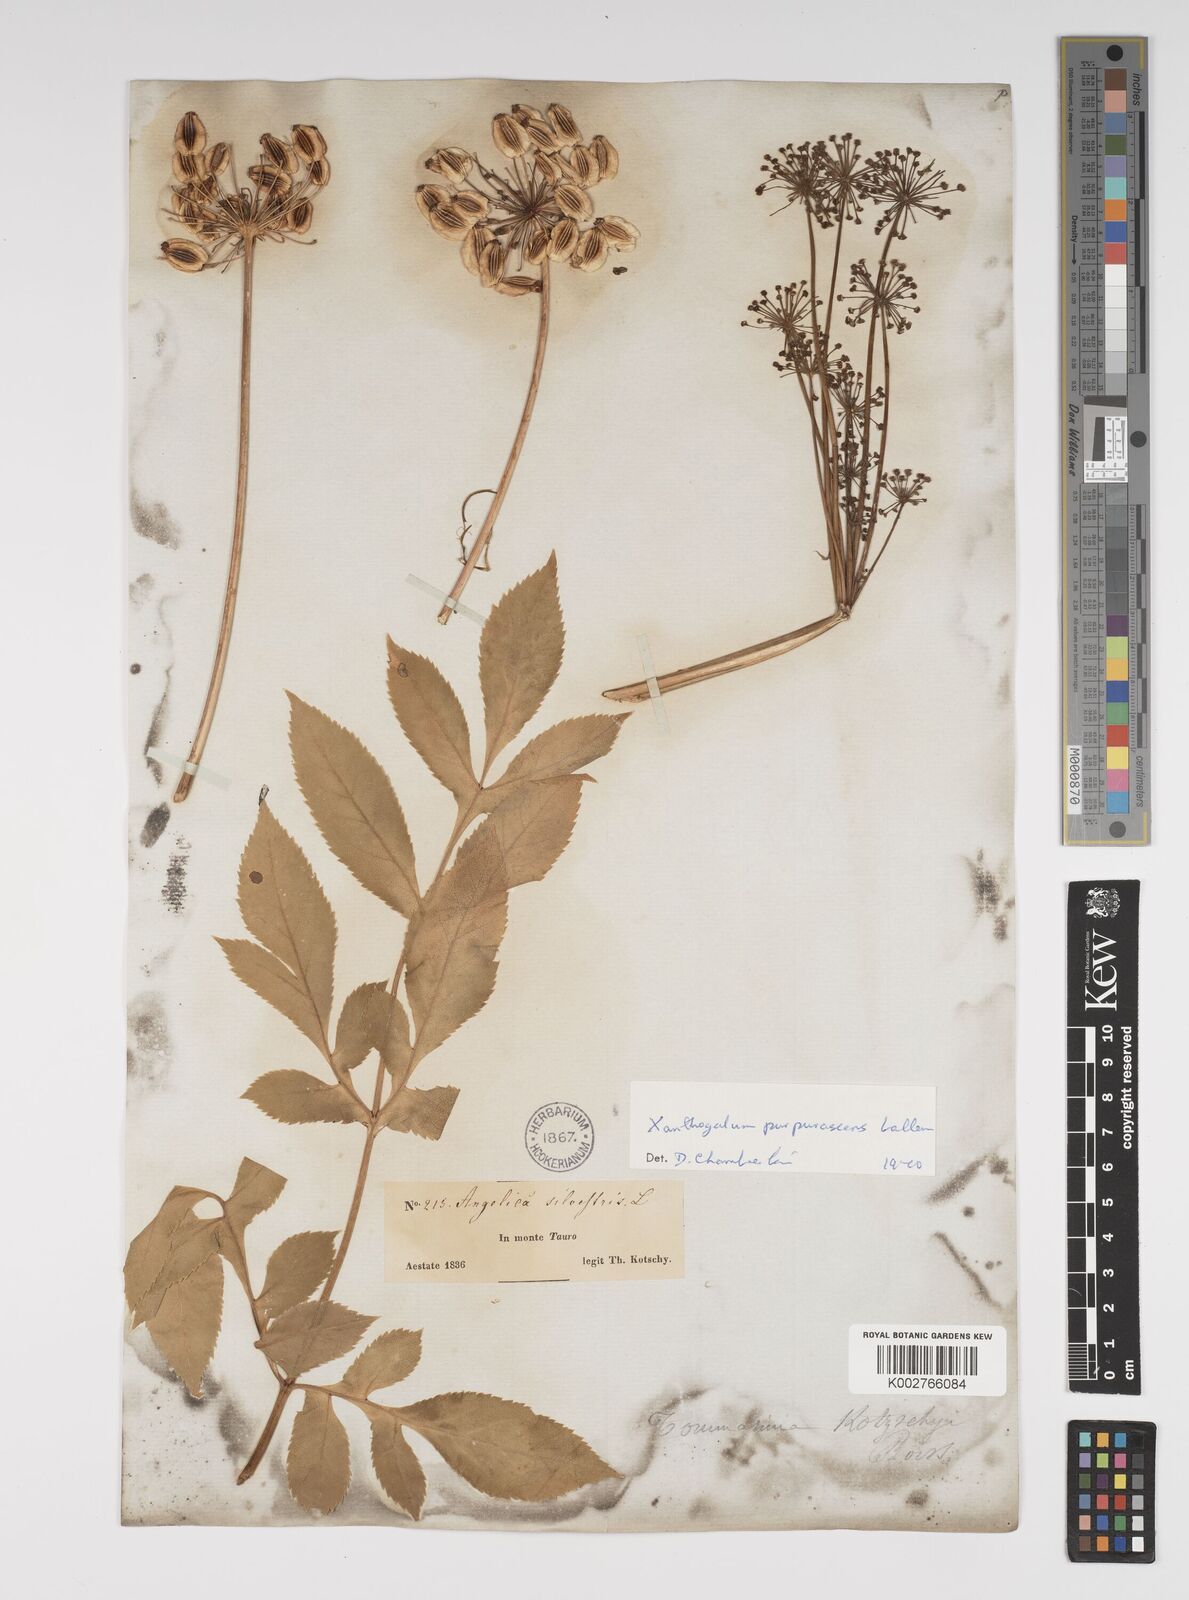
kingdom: Plantae
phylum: Tracheophyta
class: Magnoliopsida
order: Apiales
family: Apiaceae
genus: Xanthogalum
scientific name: Xanthogalum purpurascens
